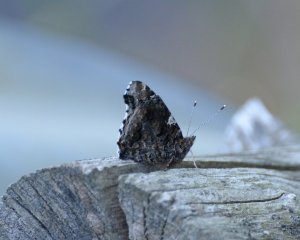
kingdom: Animalia
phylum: Arthropoda
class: Insecta
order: Lepidoptera
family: Nymphalidae
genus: Vanessa
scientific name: Vanessa atalanta
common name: Red Admiral
